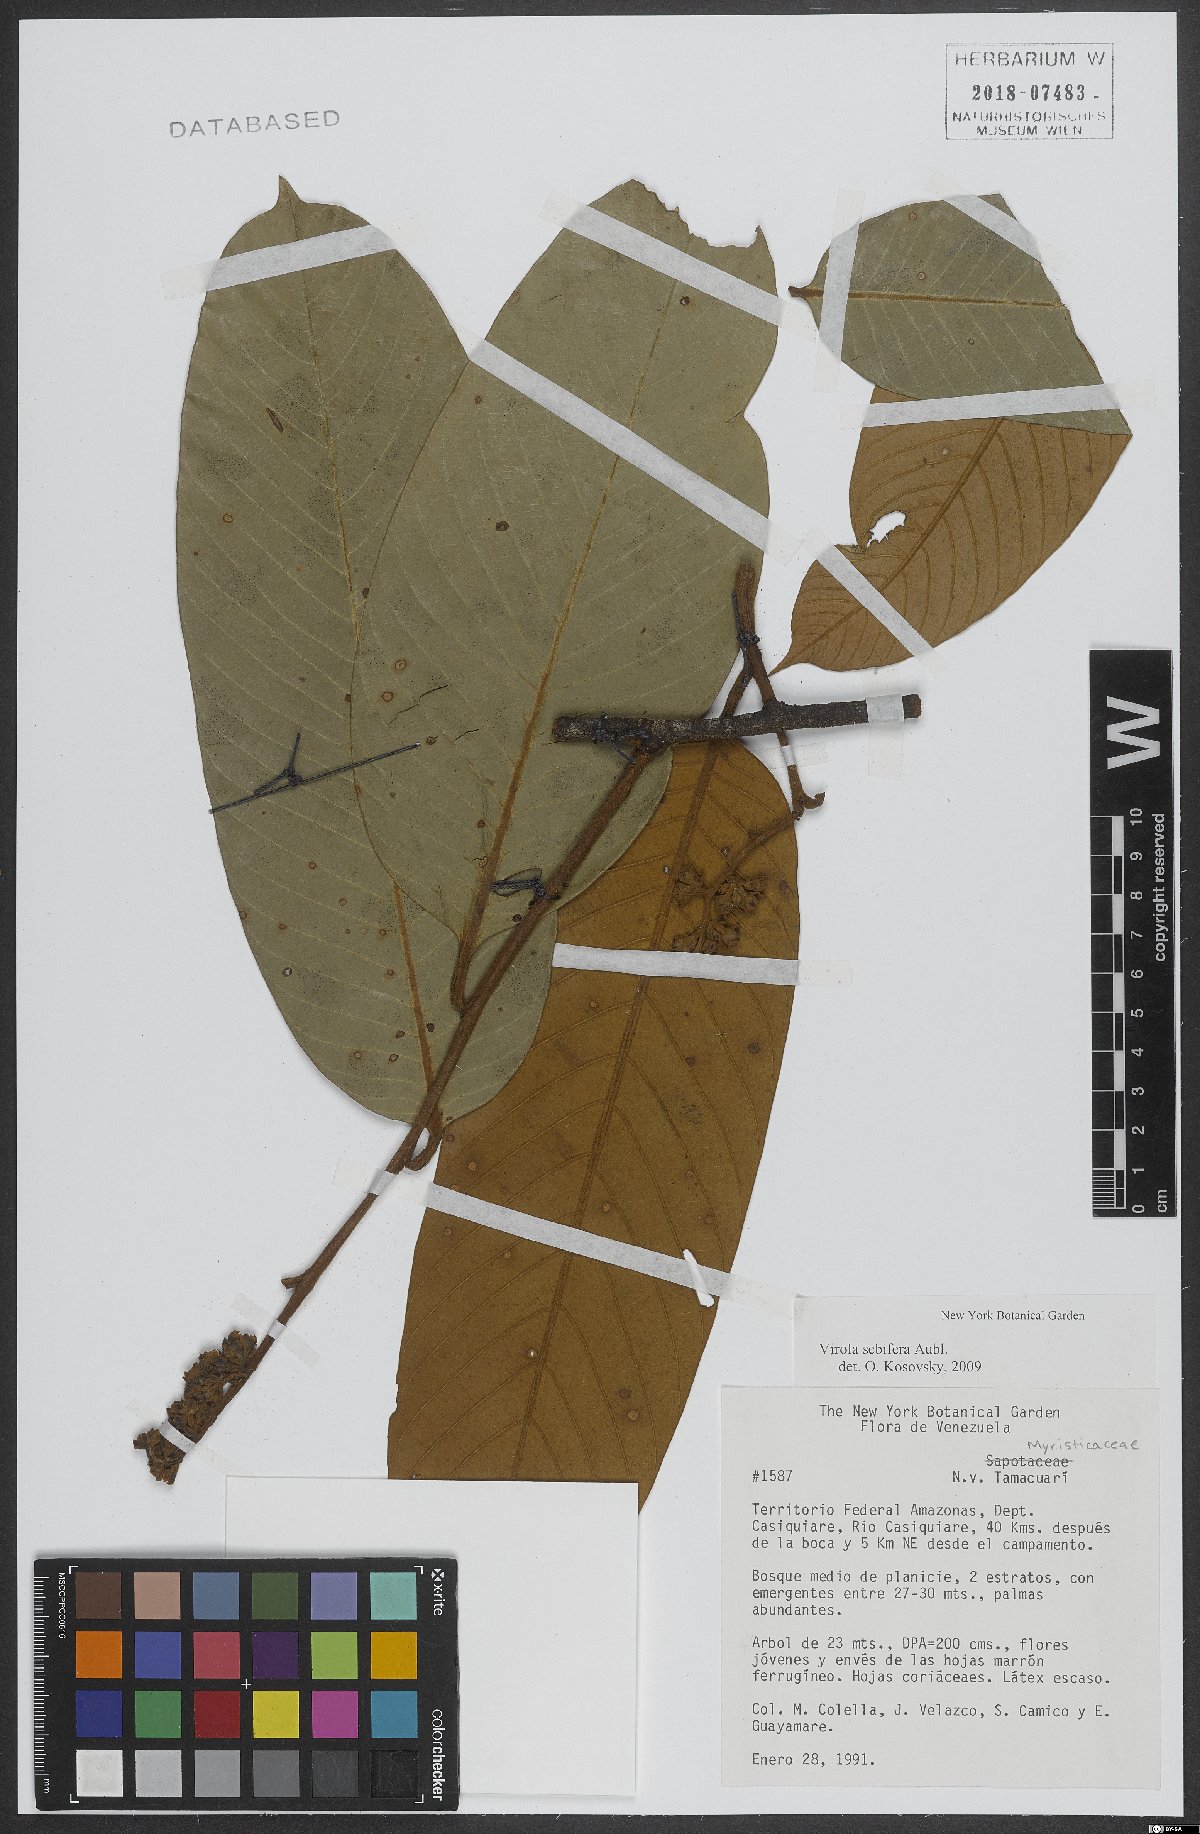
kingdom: Plantae
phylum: Tracheophyta
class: Magnoliopsida
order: Rosales
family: Rosaceae
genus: Hesperomeles
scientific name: Hesperomeles obtusifolia
